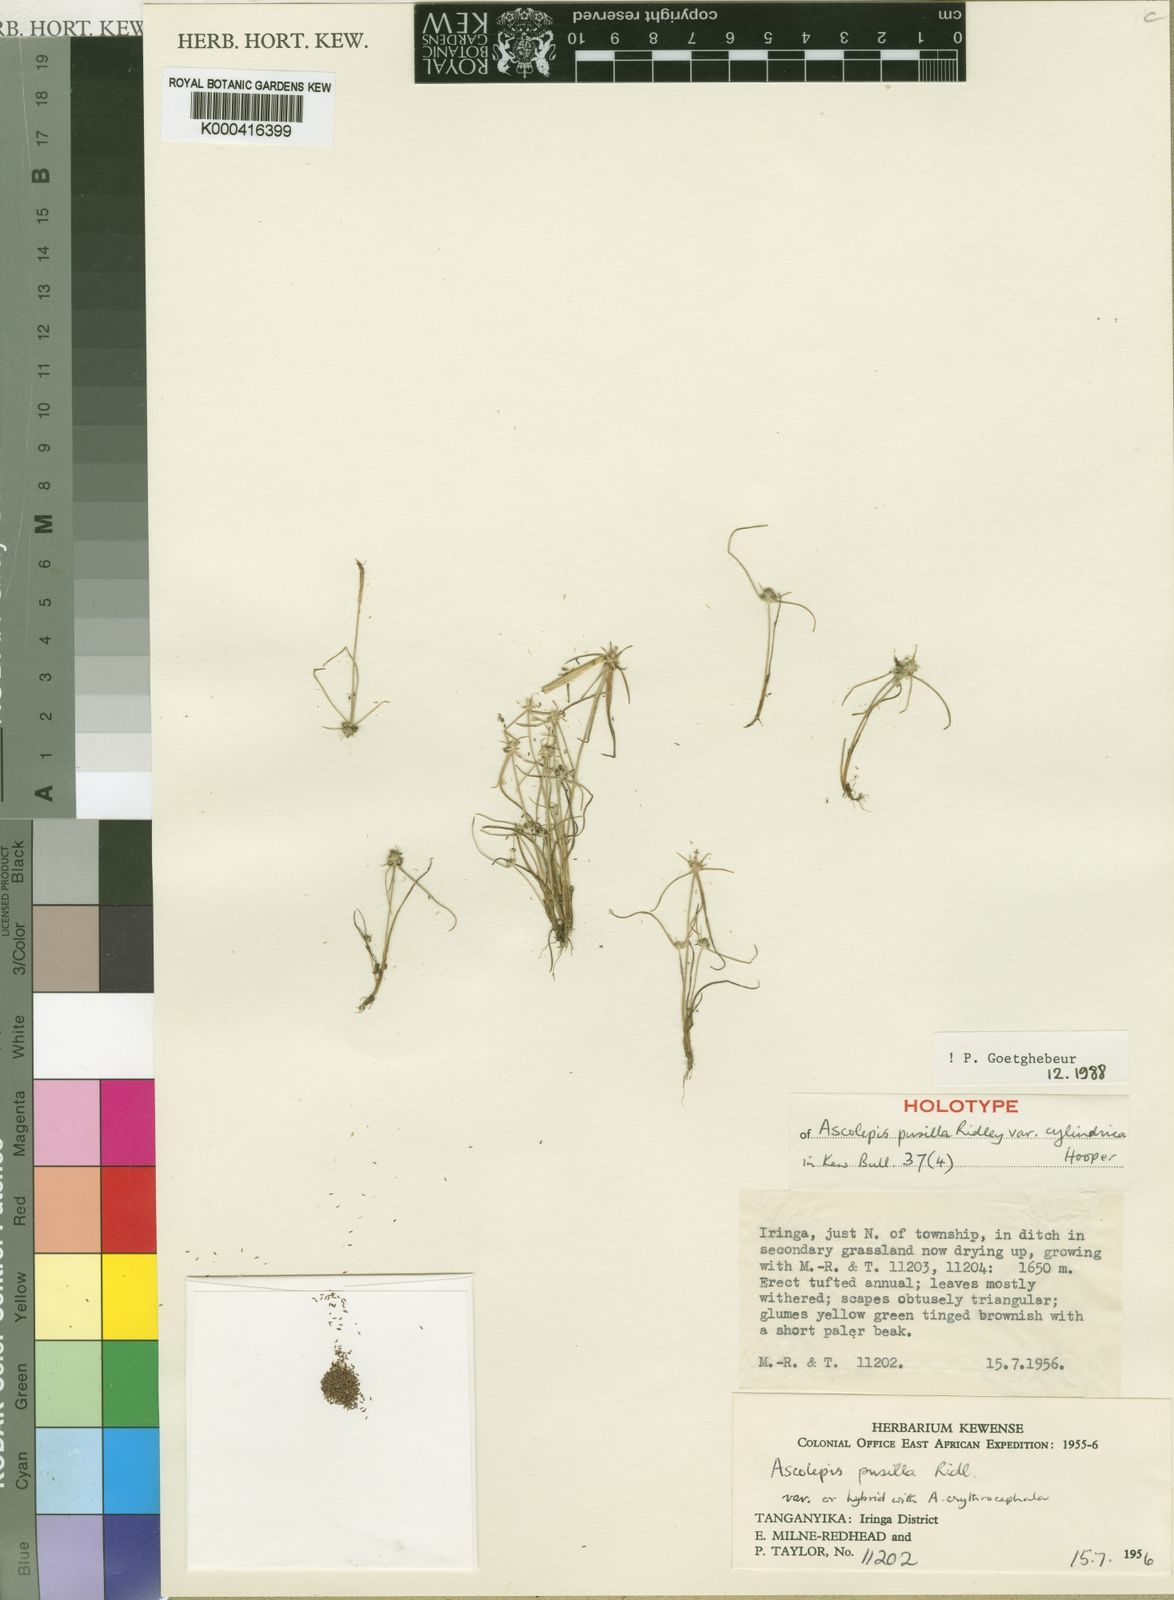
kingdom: Plantae
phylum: Tracheophyta
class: Liliopsida
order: Poales
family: Cyperaceae
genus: Cyperus
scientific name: Cyperus ascopusillus
